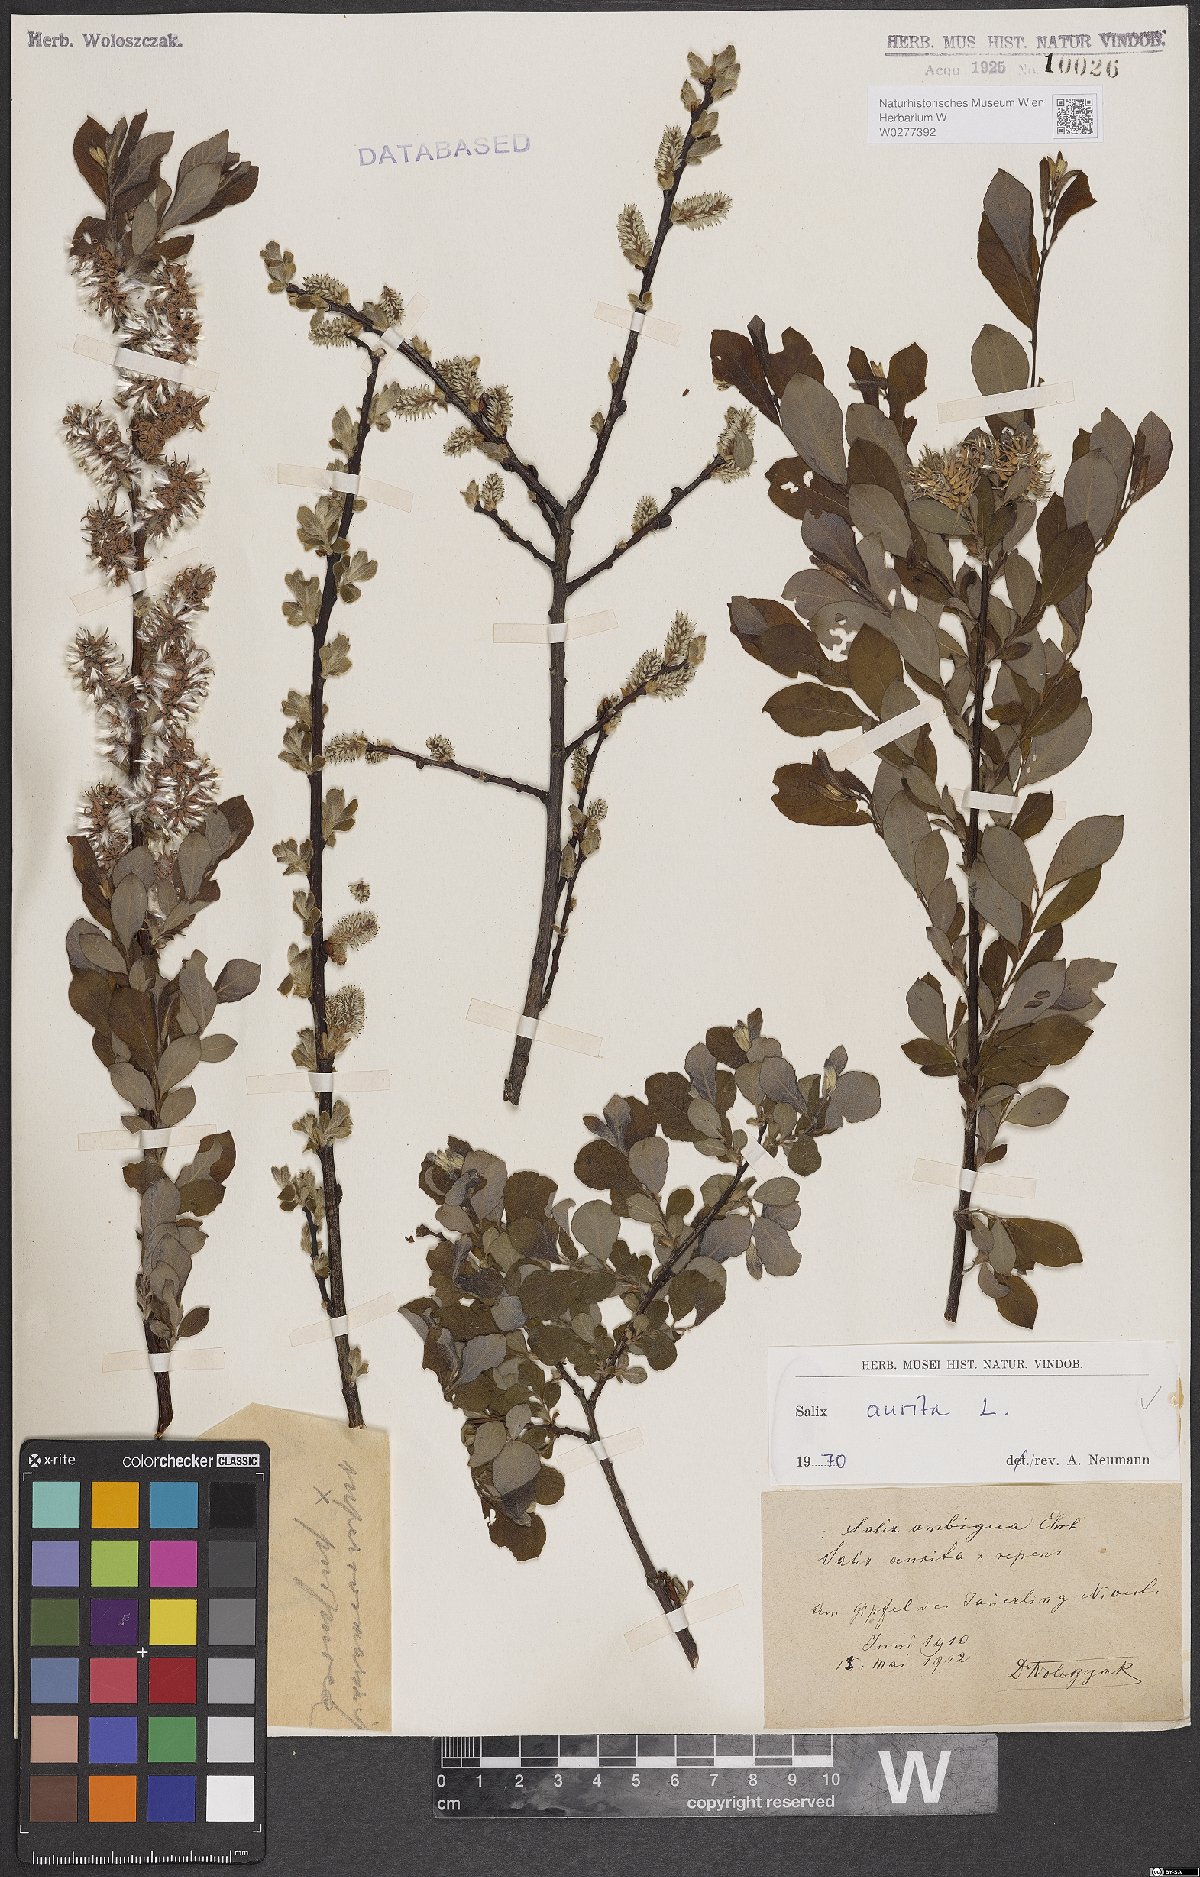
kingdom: Plantae
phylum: Tracheophyta
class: Magnoliopsida
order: Malpighiales
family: Salicaceae
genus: Salix
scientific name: Salix aurita
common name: Eared willow
